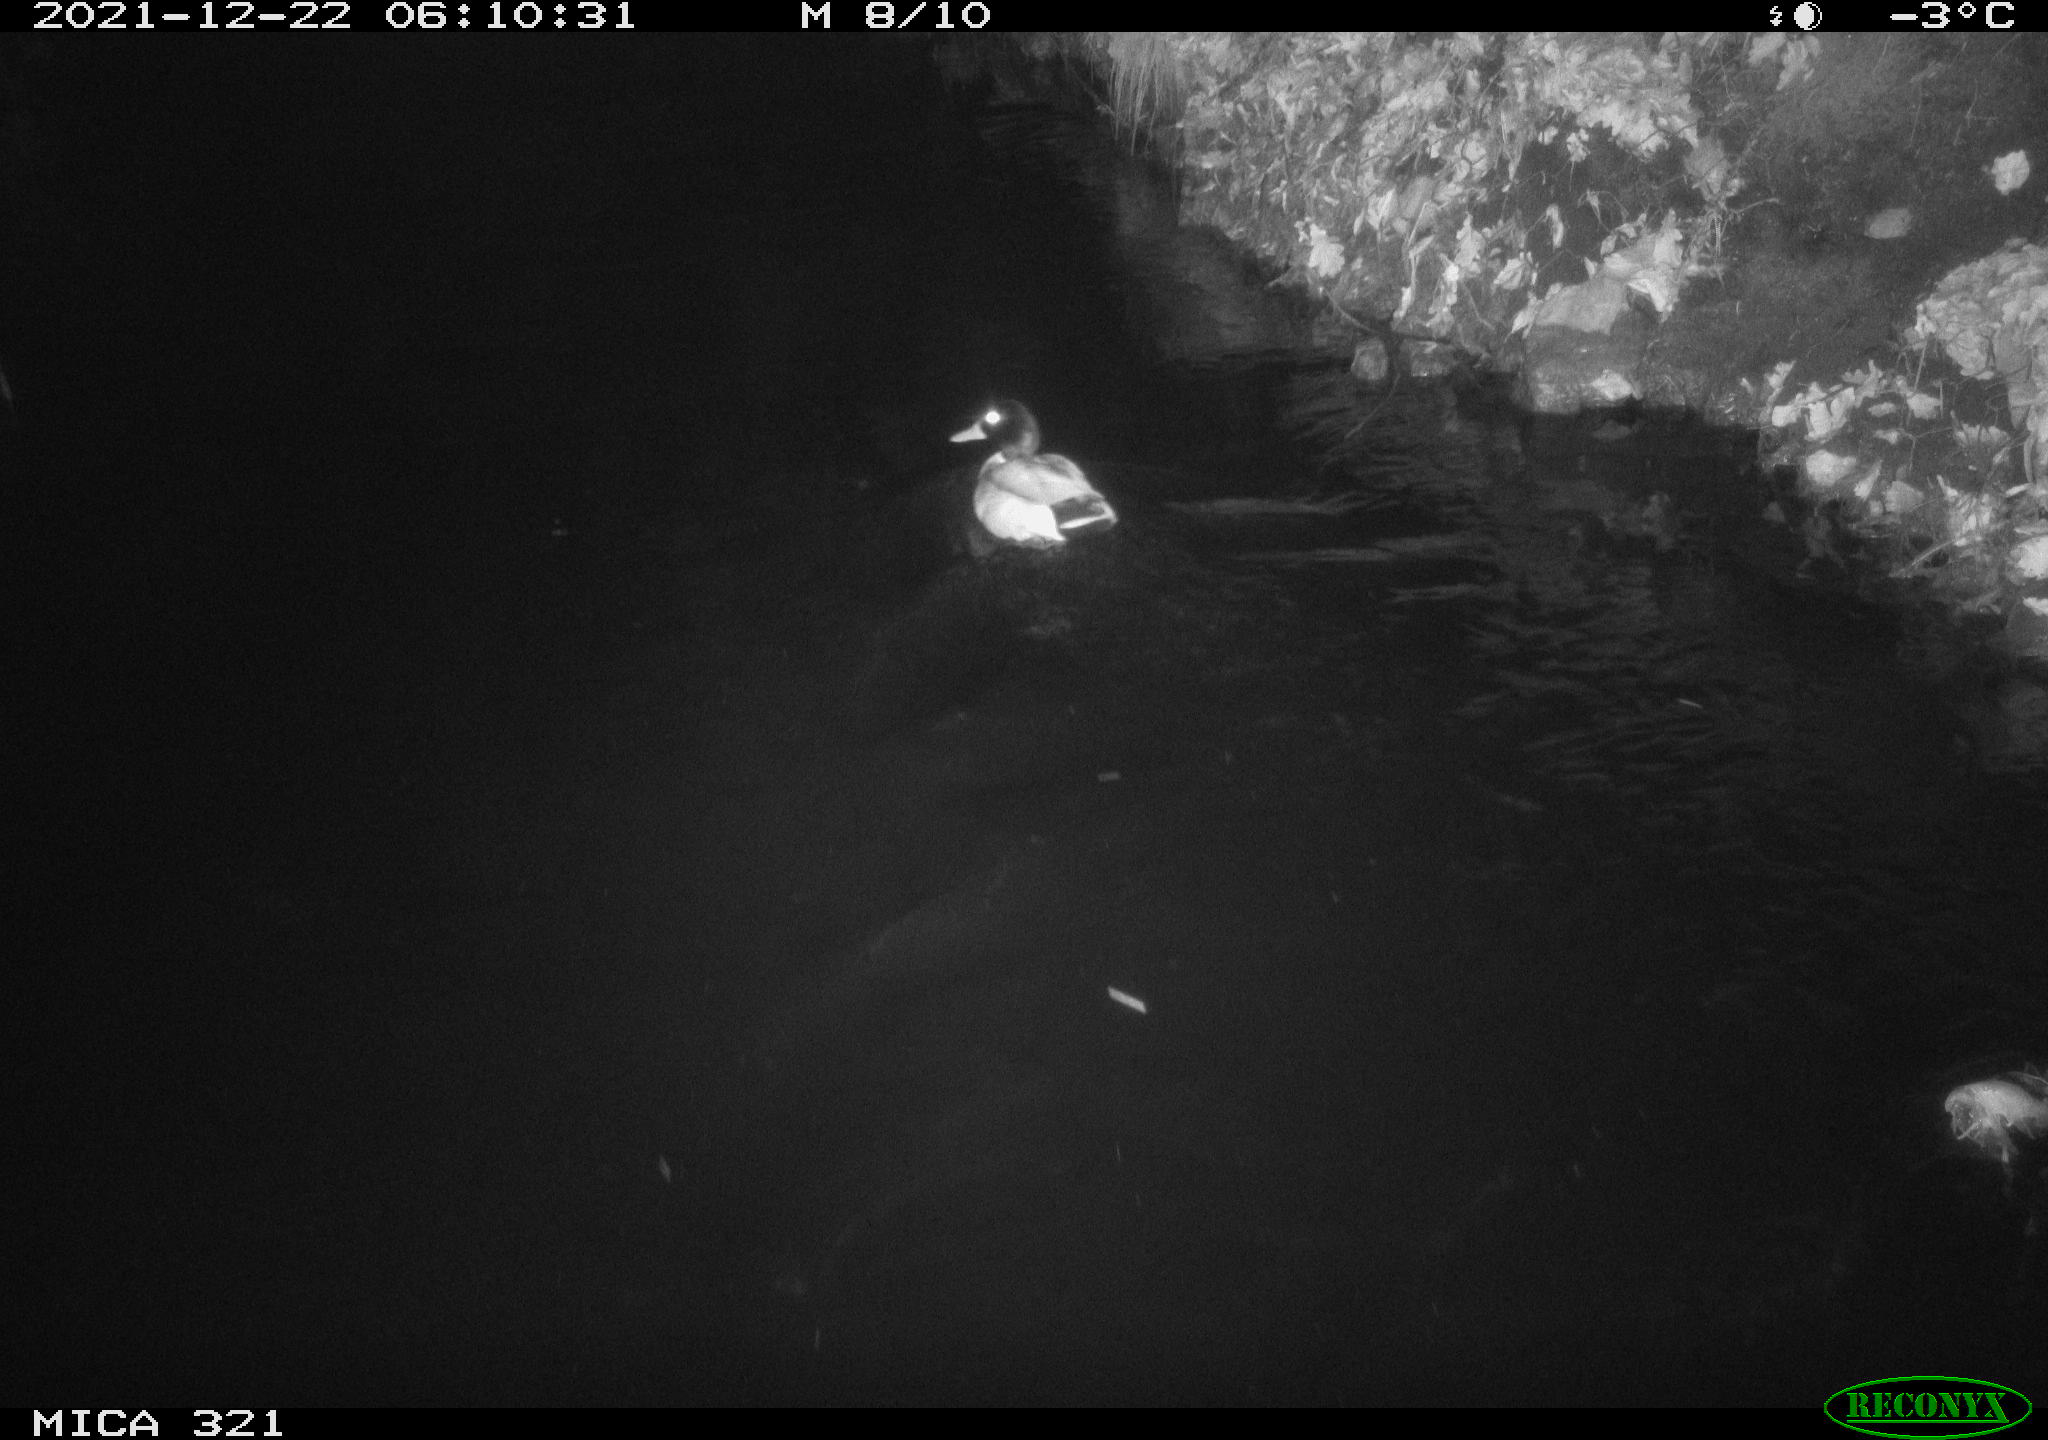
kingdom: Animalia
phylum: Chordata
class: Aves
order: Anseriformes
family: Anatidae
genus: Anas
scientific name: Anas
